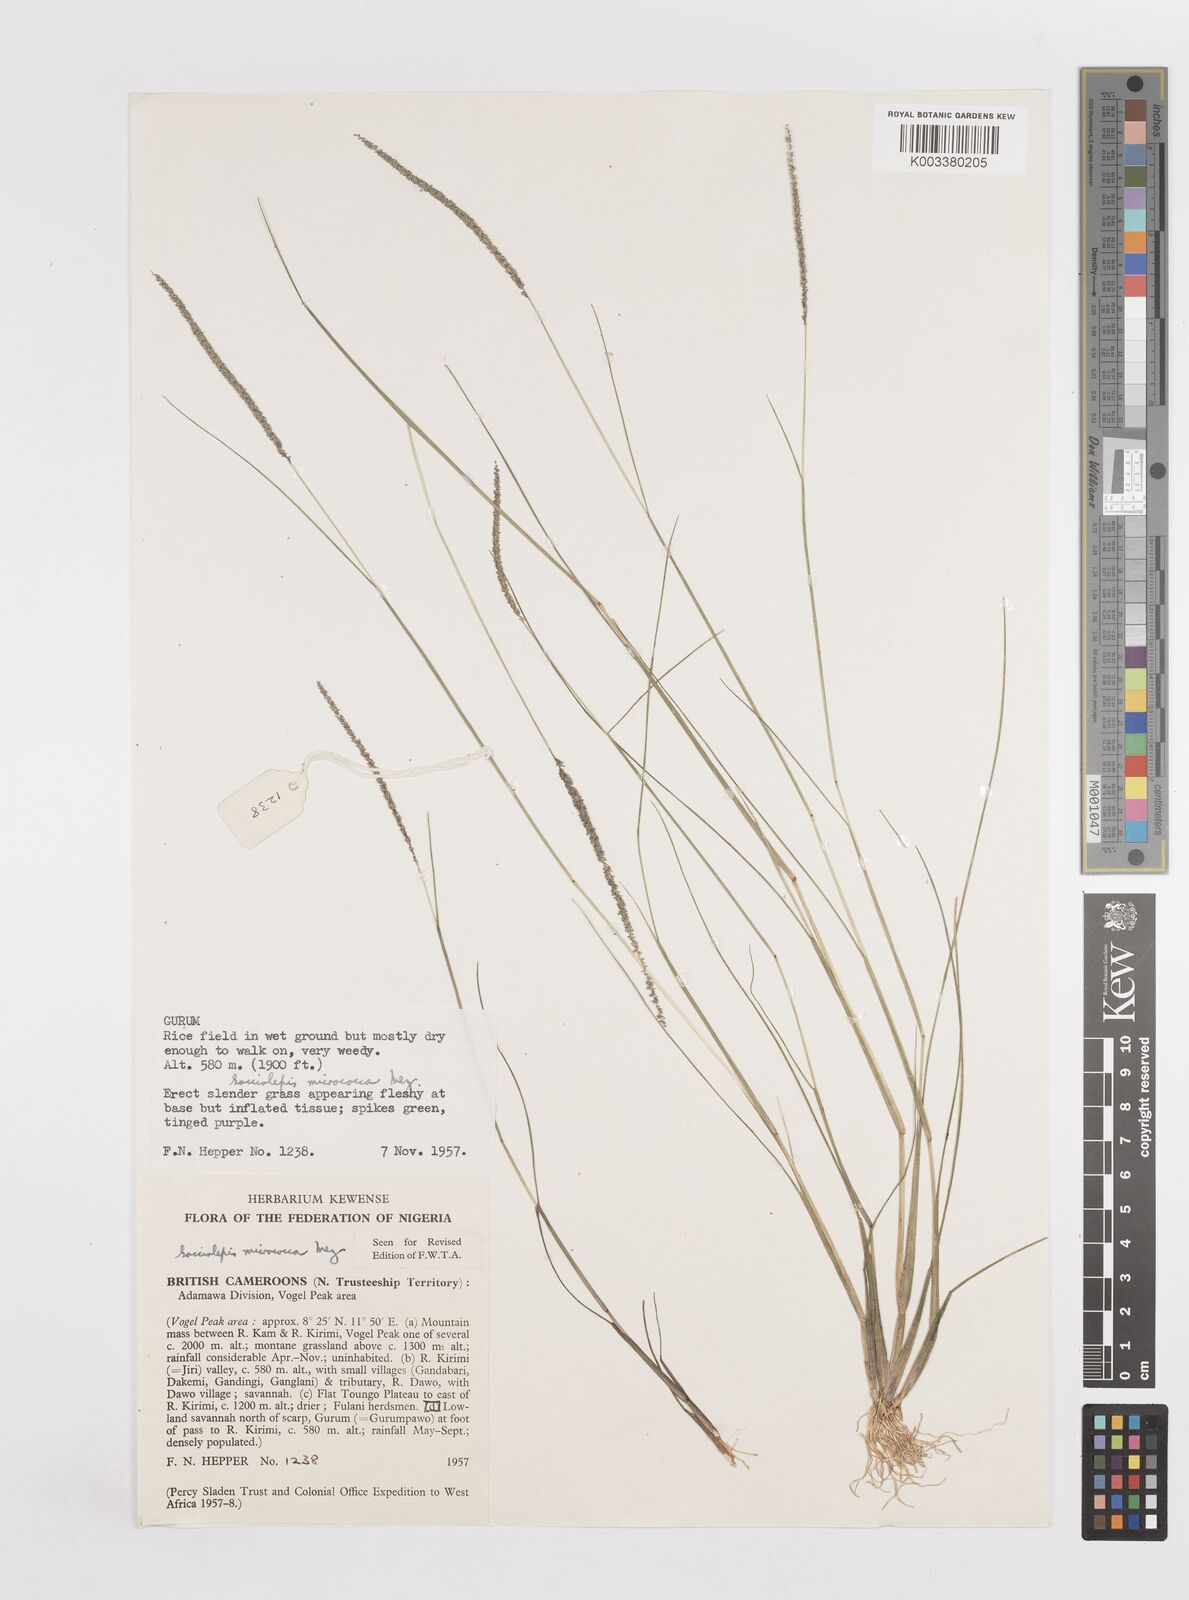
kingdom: Plantae
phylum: Tracheophyta
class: Liliopsida
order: Poales
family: Poaceae
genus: Sacciolepis
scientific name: Sacciolepis micrococca
